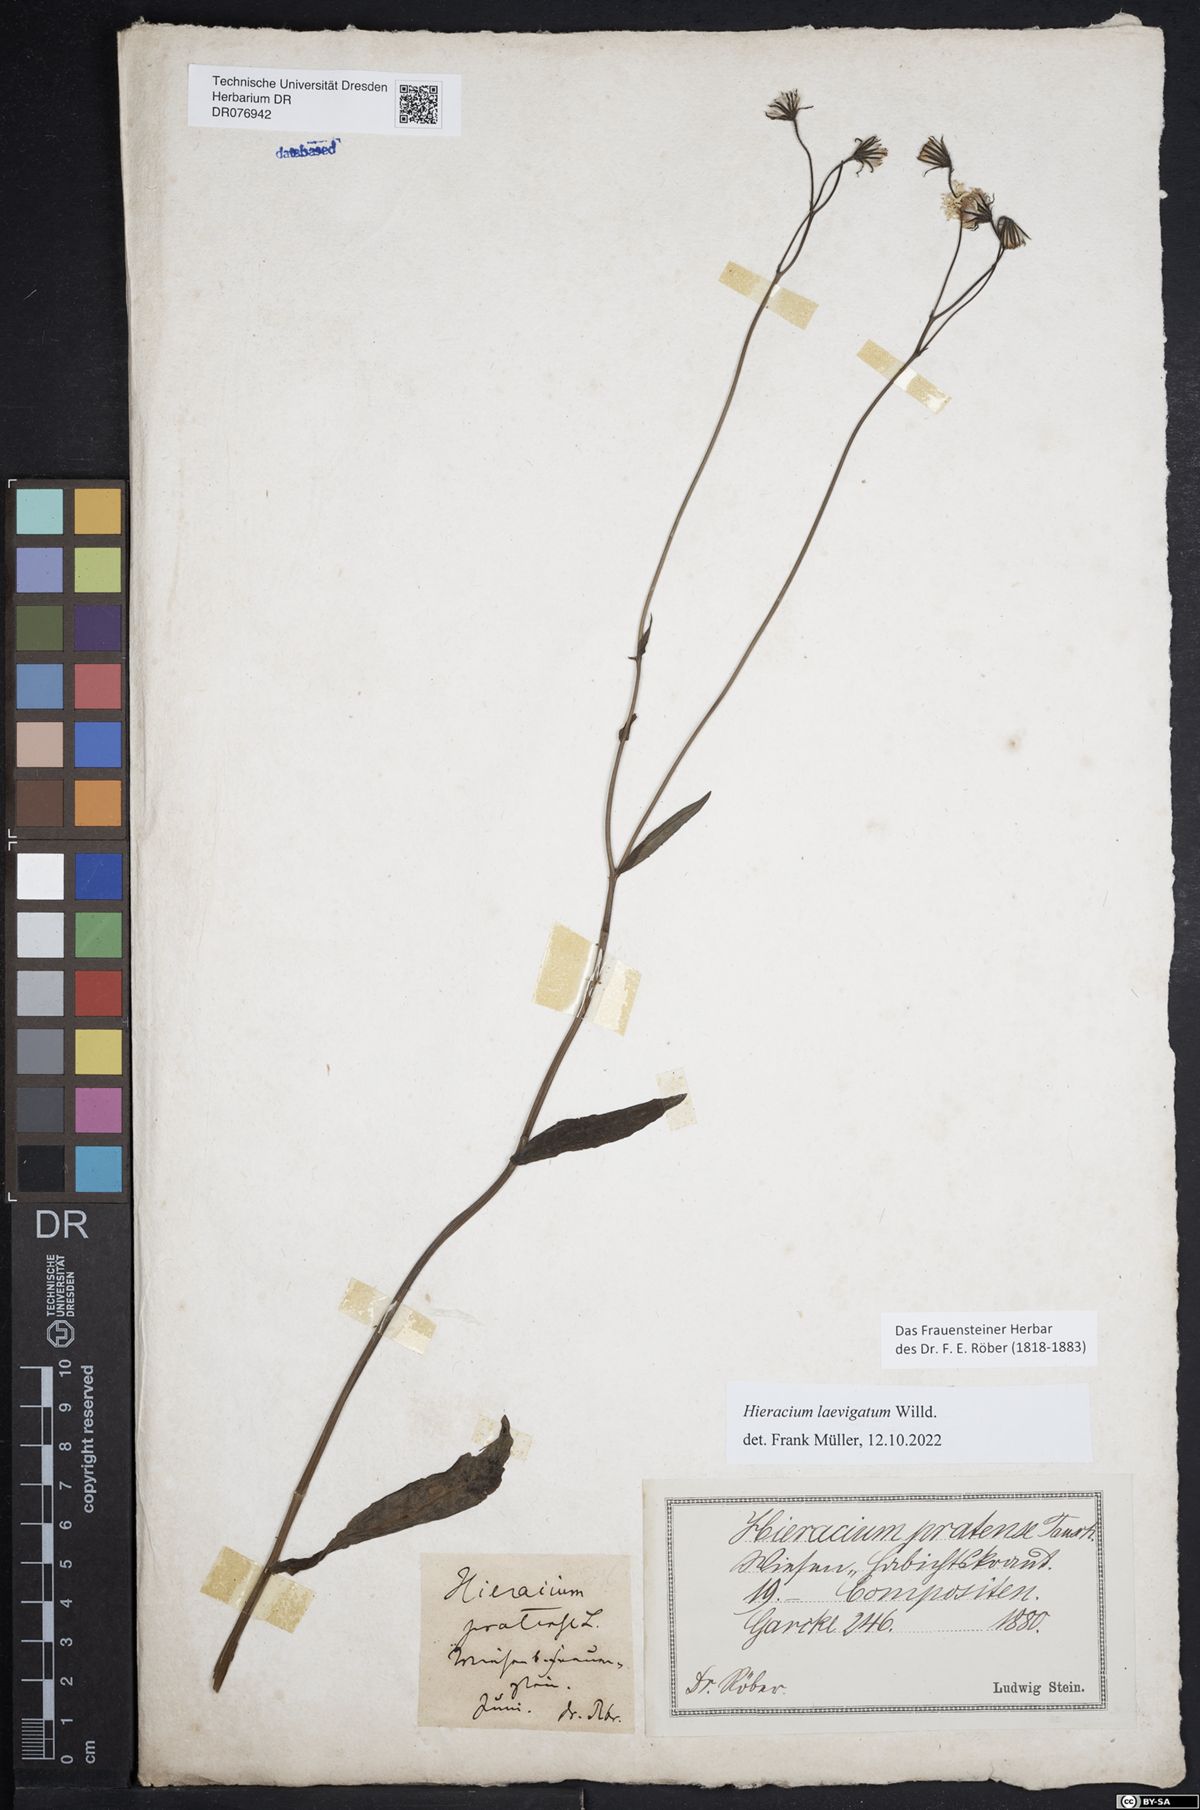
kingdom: Plantae
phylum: Tracheophyta
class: Magnoliopsida
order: Asterales
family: Asteraceae
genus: Hieracium
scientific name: Hieracium laevigatum
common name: Smooth hawkweed
